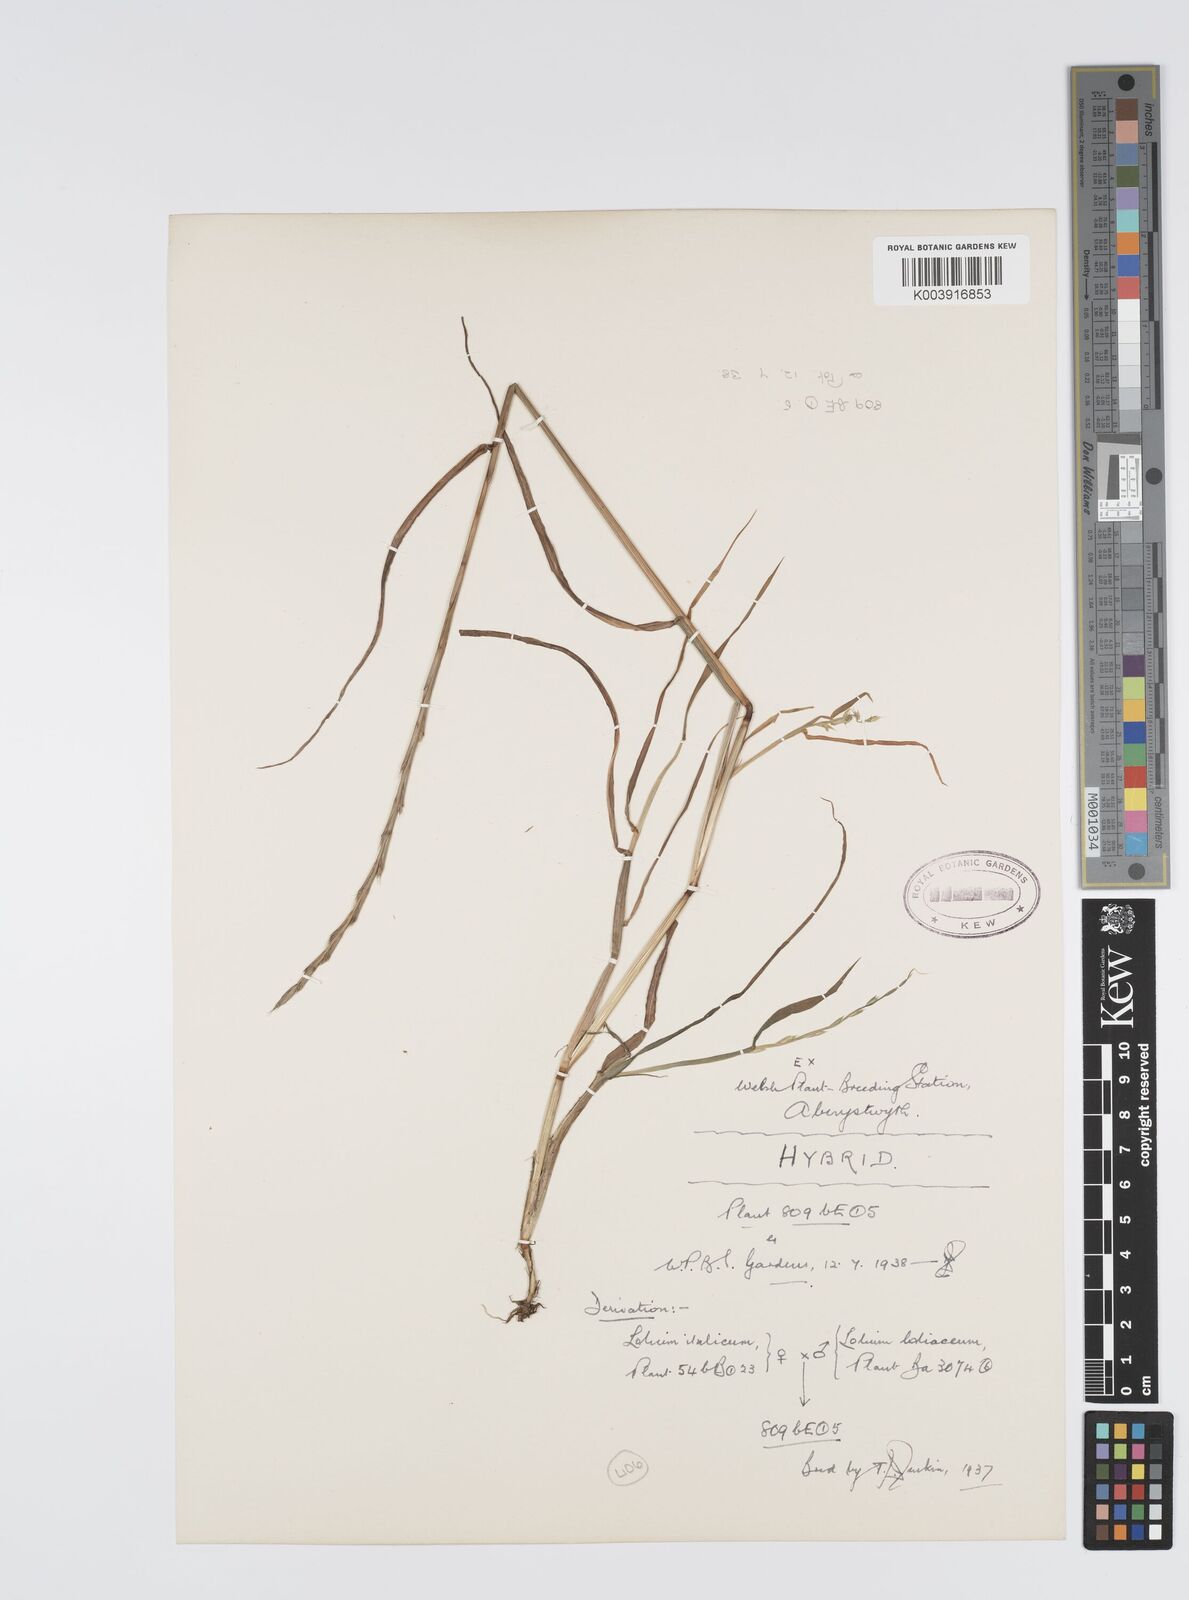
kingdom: Plantae
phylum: Tracheophyta
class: Liliopsida
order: Poales
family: Poaceae
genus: Lolium
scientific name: Lolium multiflorum
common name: Annual ryegrass
